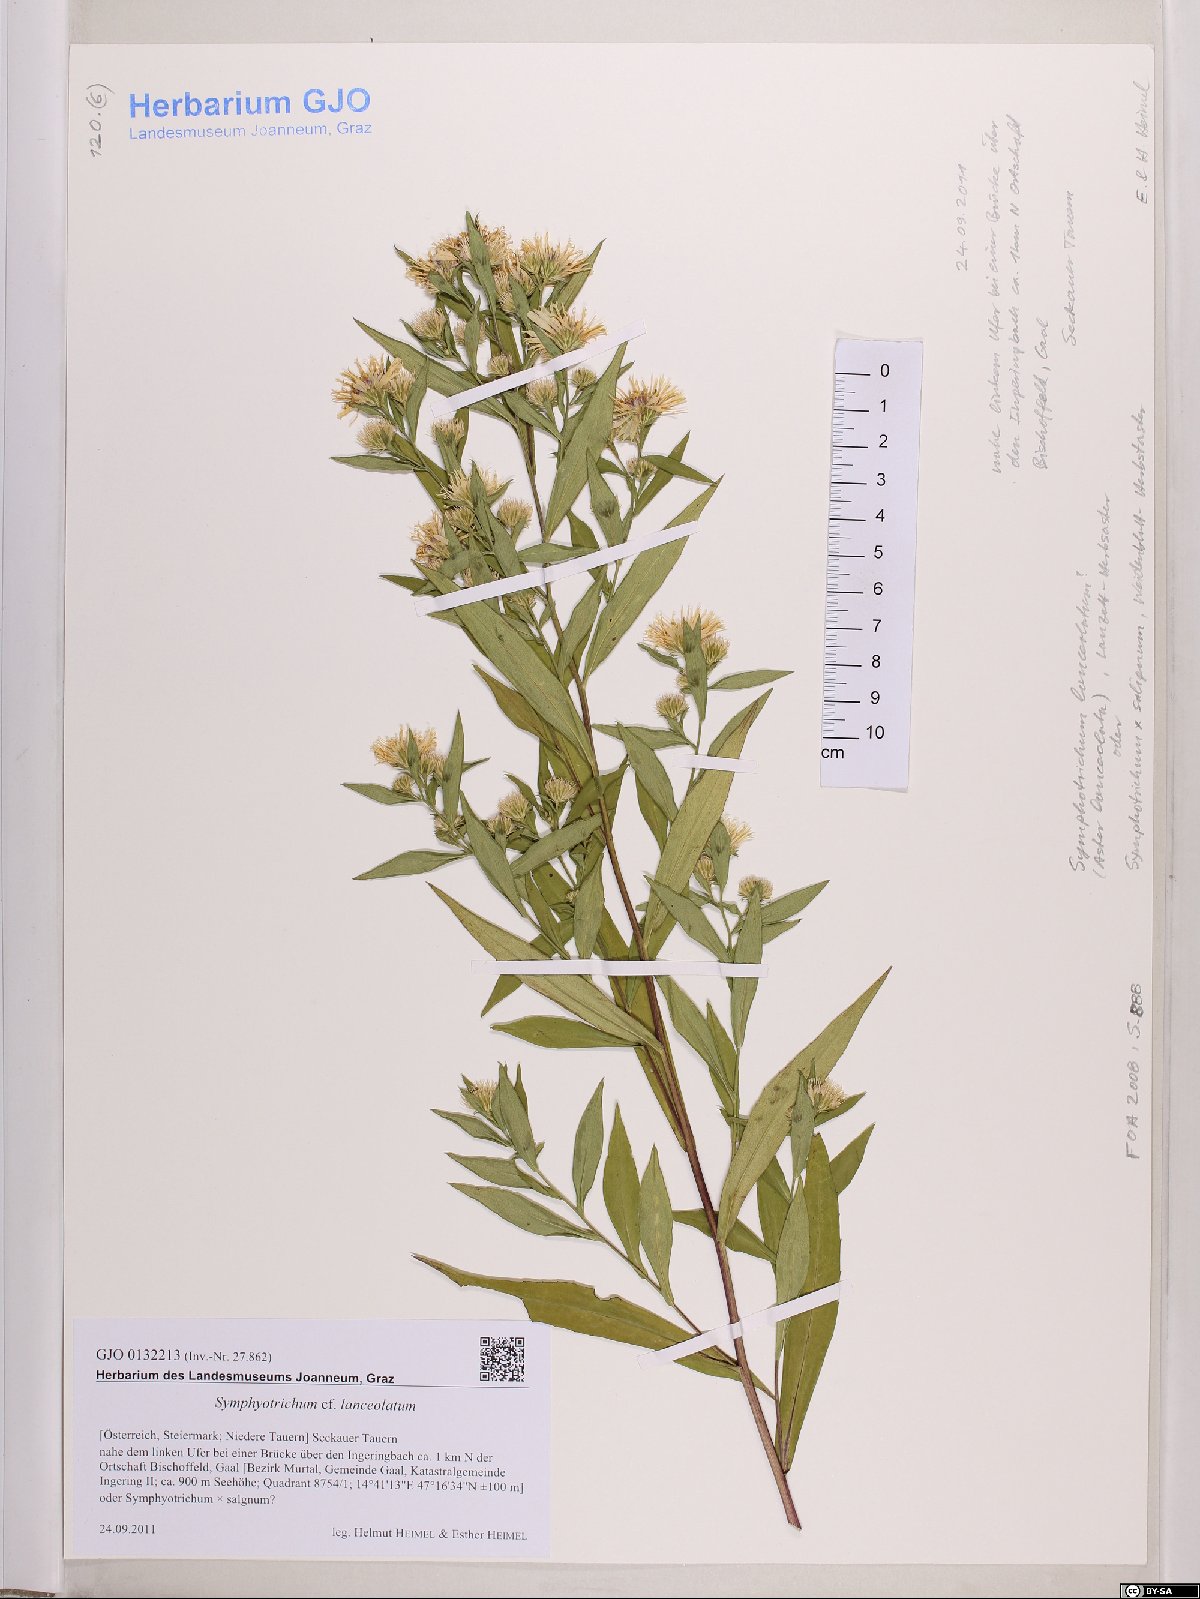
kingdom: Plantae
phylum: Tracheophyta
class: Magnoliopsida
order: Asterales
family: Asteraceae
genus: Symphyotrichum
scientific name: Symphyotrichum lanceolatum
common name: Panicled aster
